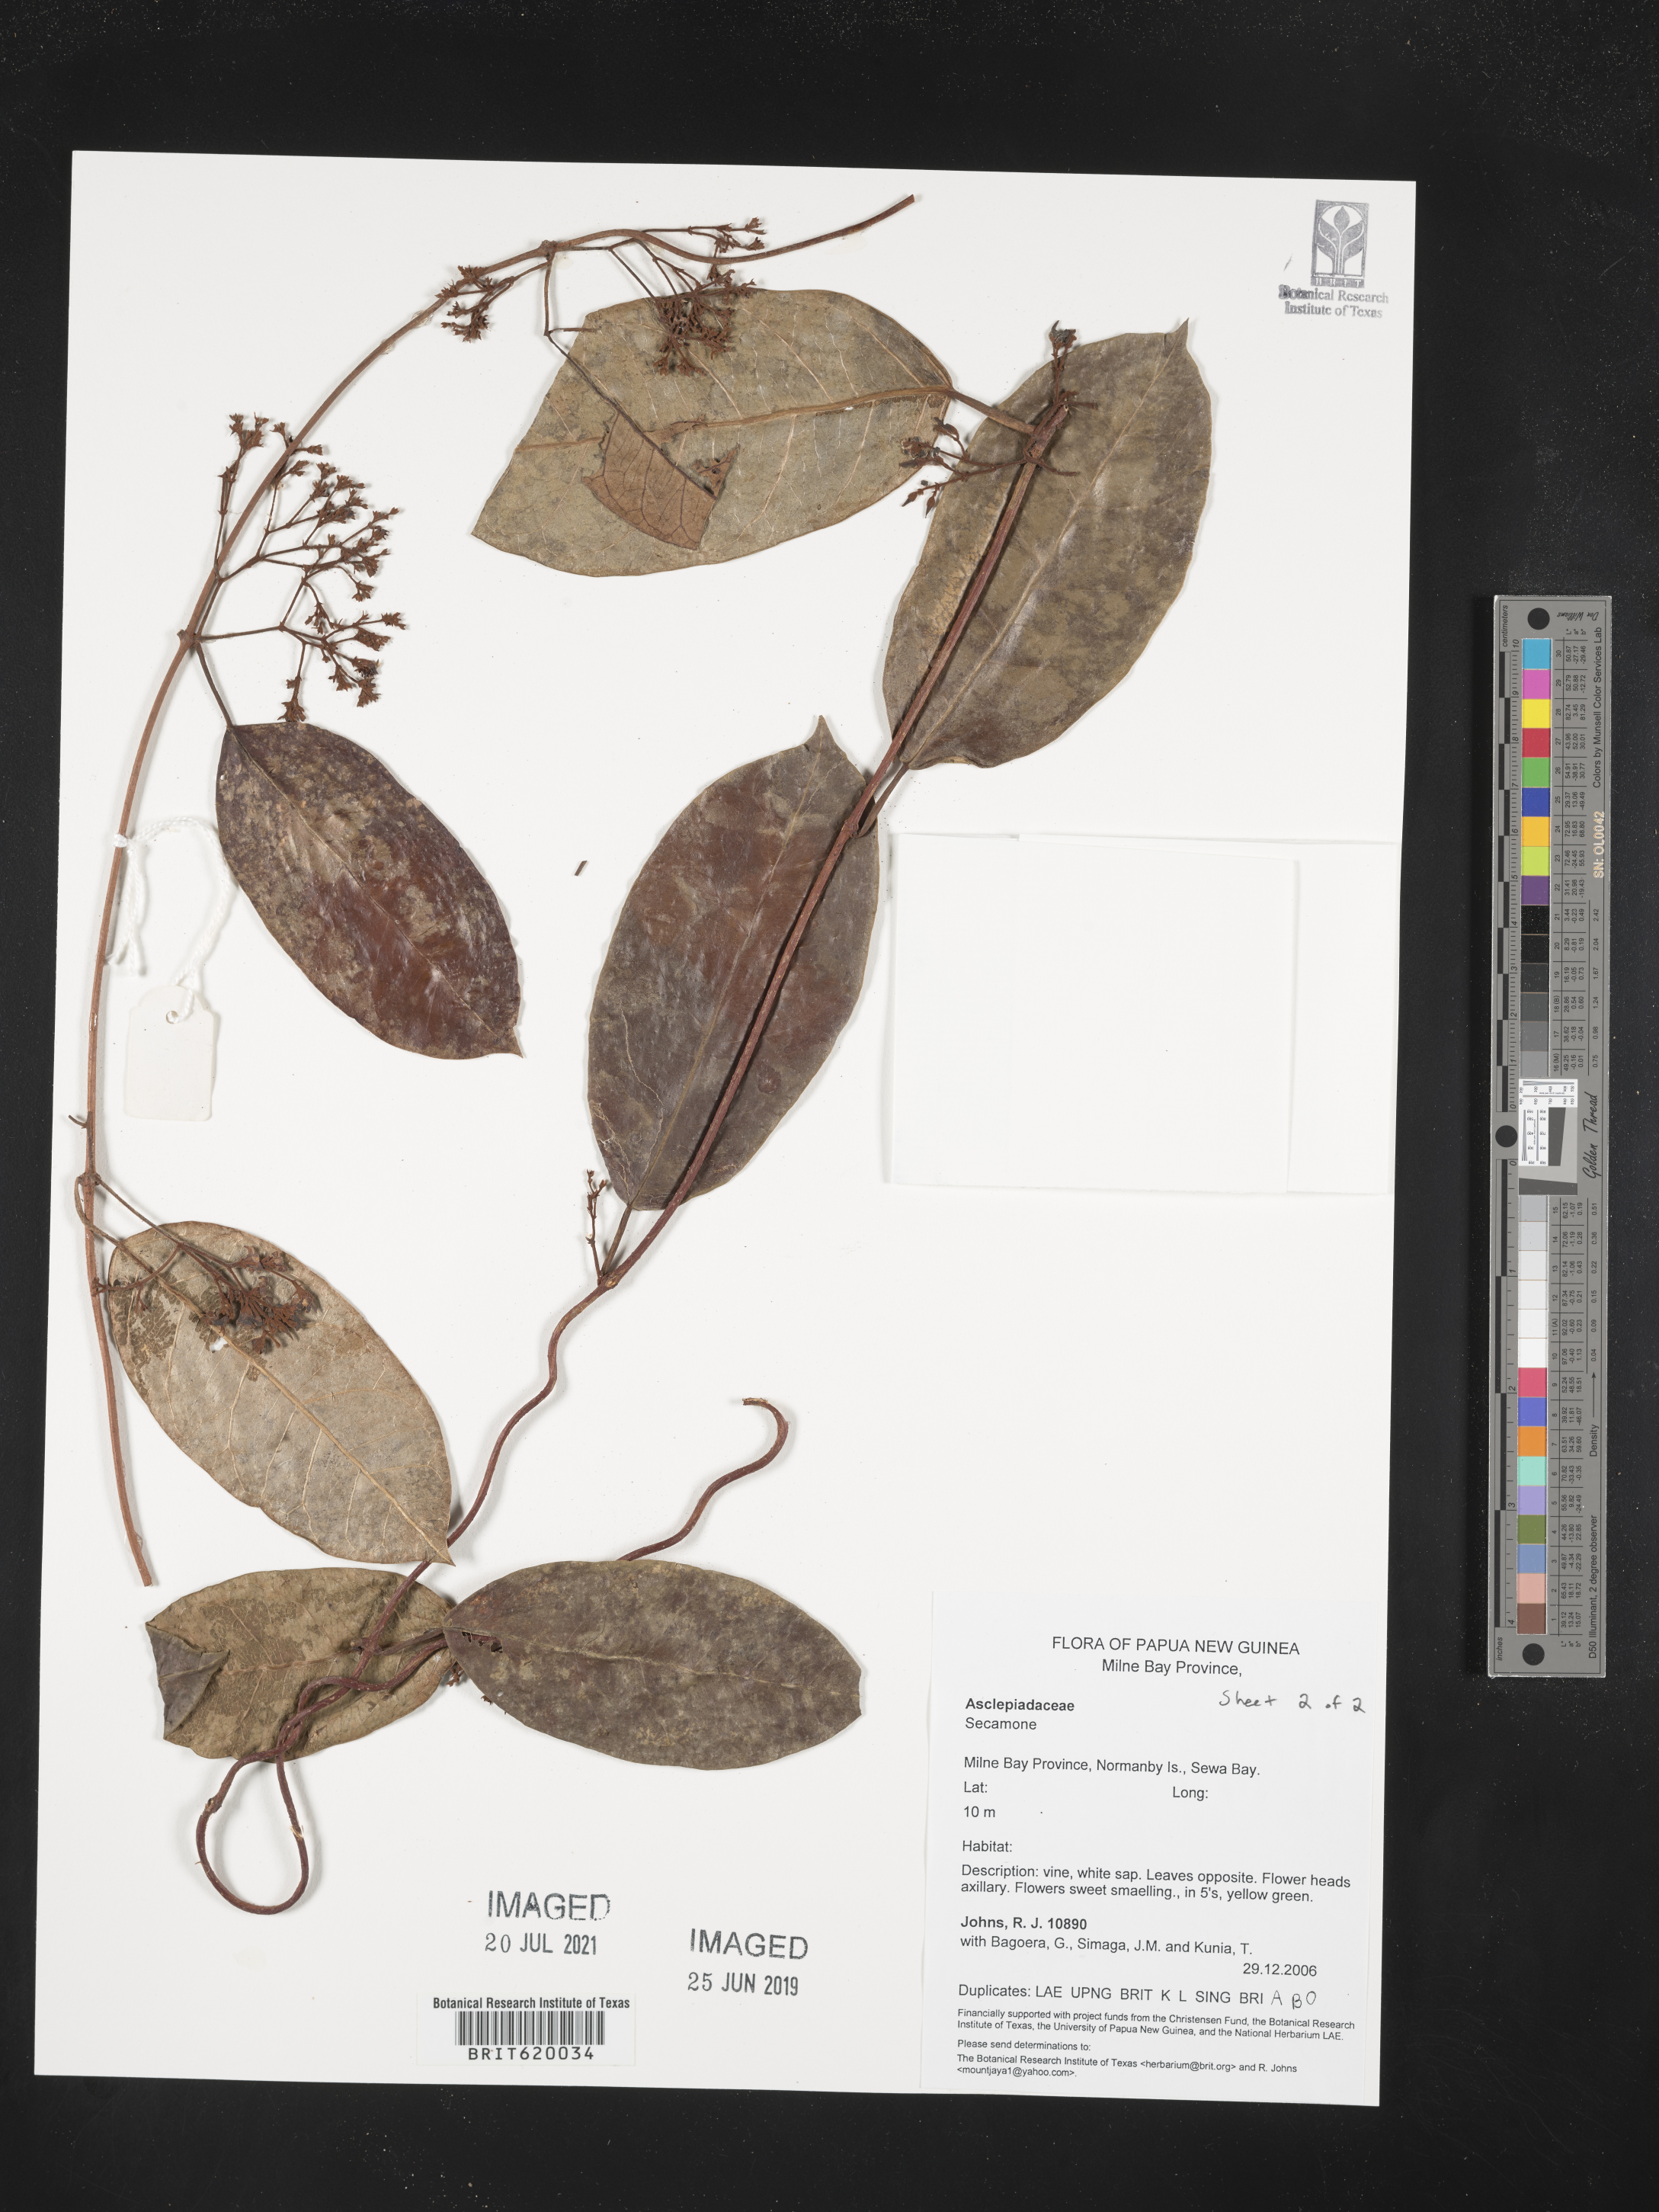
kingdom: Plantae
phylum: Tracheophyta
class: Magnoliopsida
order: Gentianales
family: Apocynaceae
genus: Secamone
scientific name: Secamone
